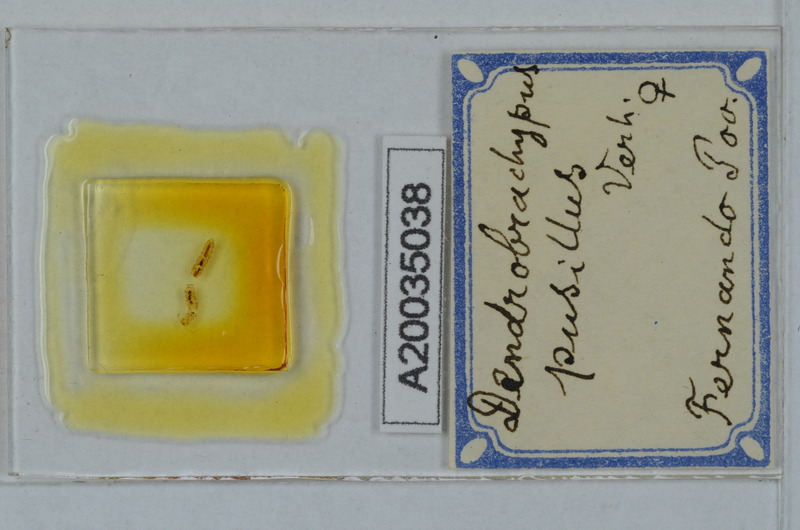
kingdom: Animalia
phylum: Arthropoda
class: Diplopoda
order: Polydesmida
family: Fuhrmannodesmidae
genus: Dendrobrachypus
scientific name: Dendrobrachypus pusillus
